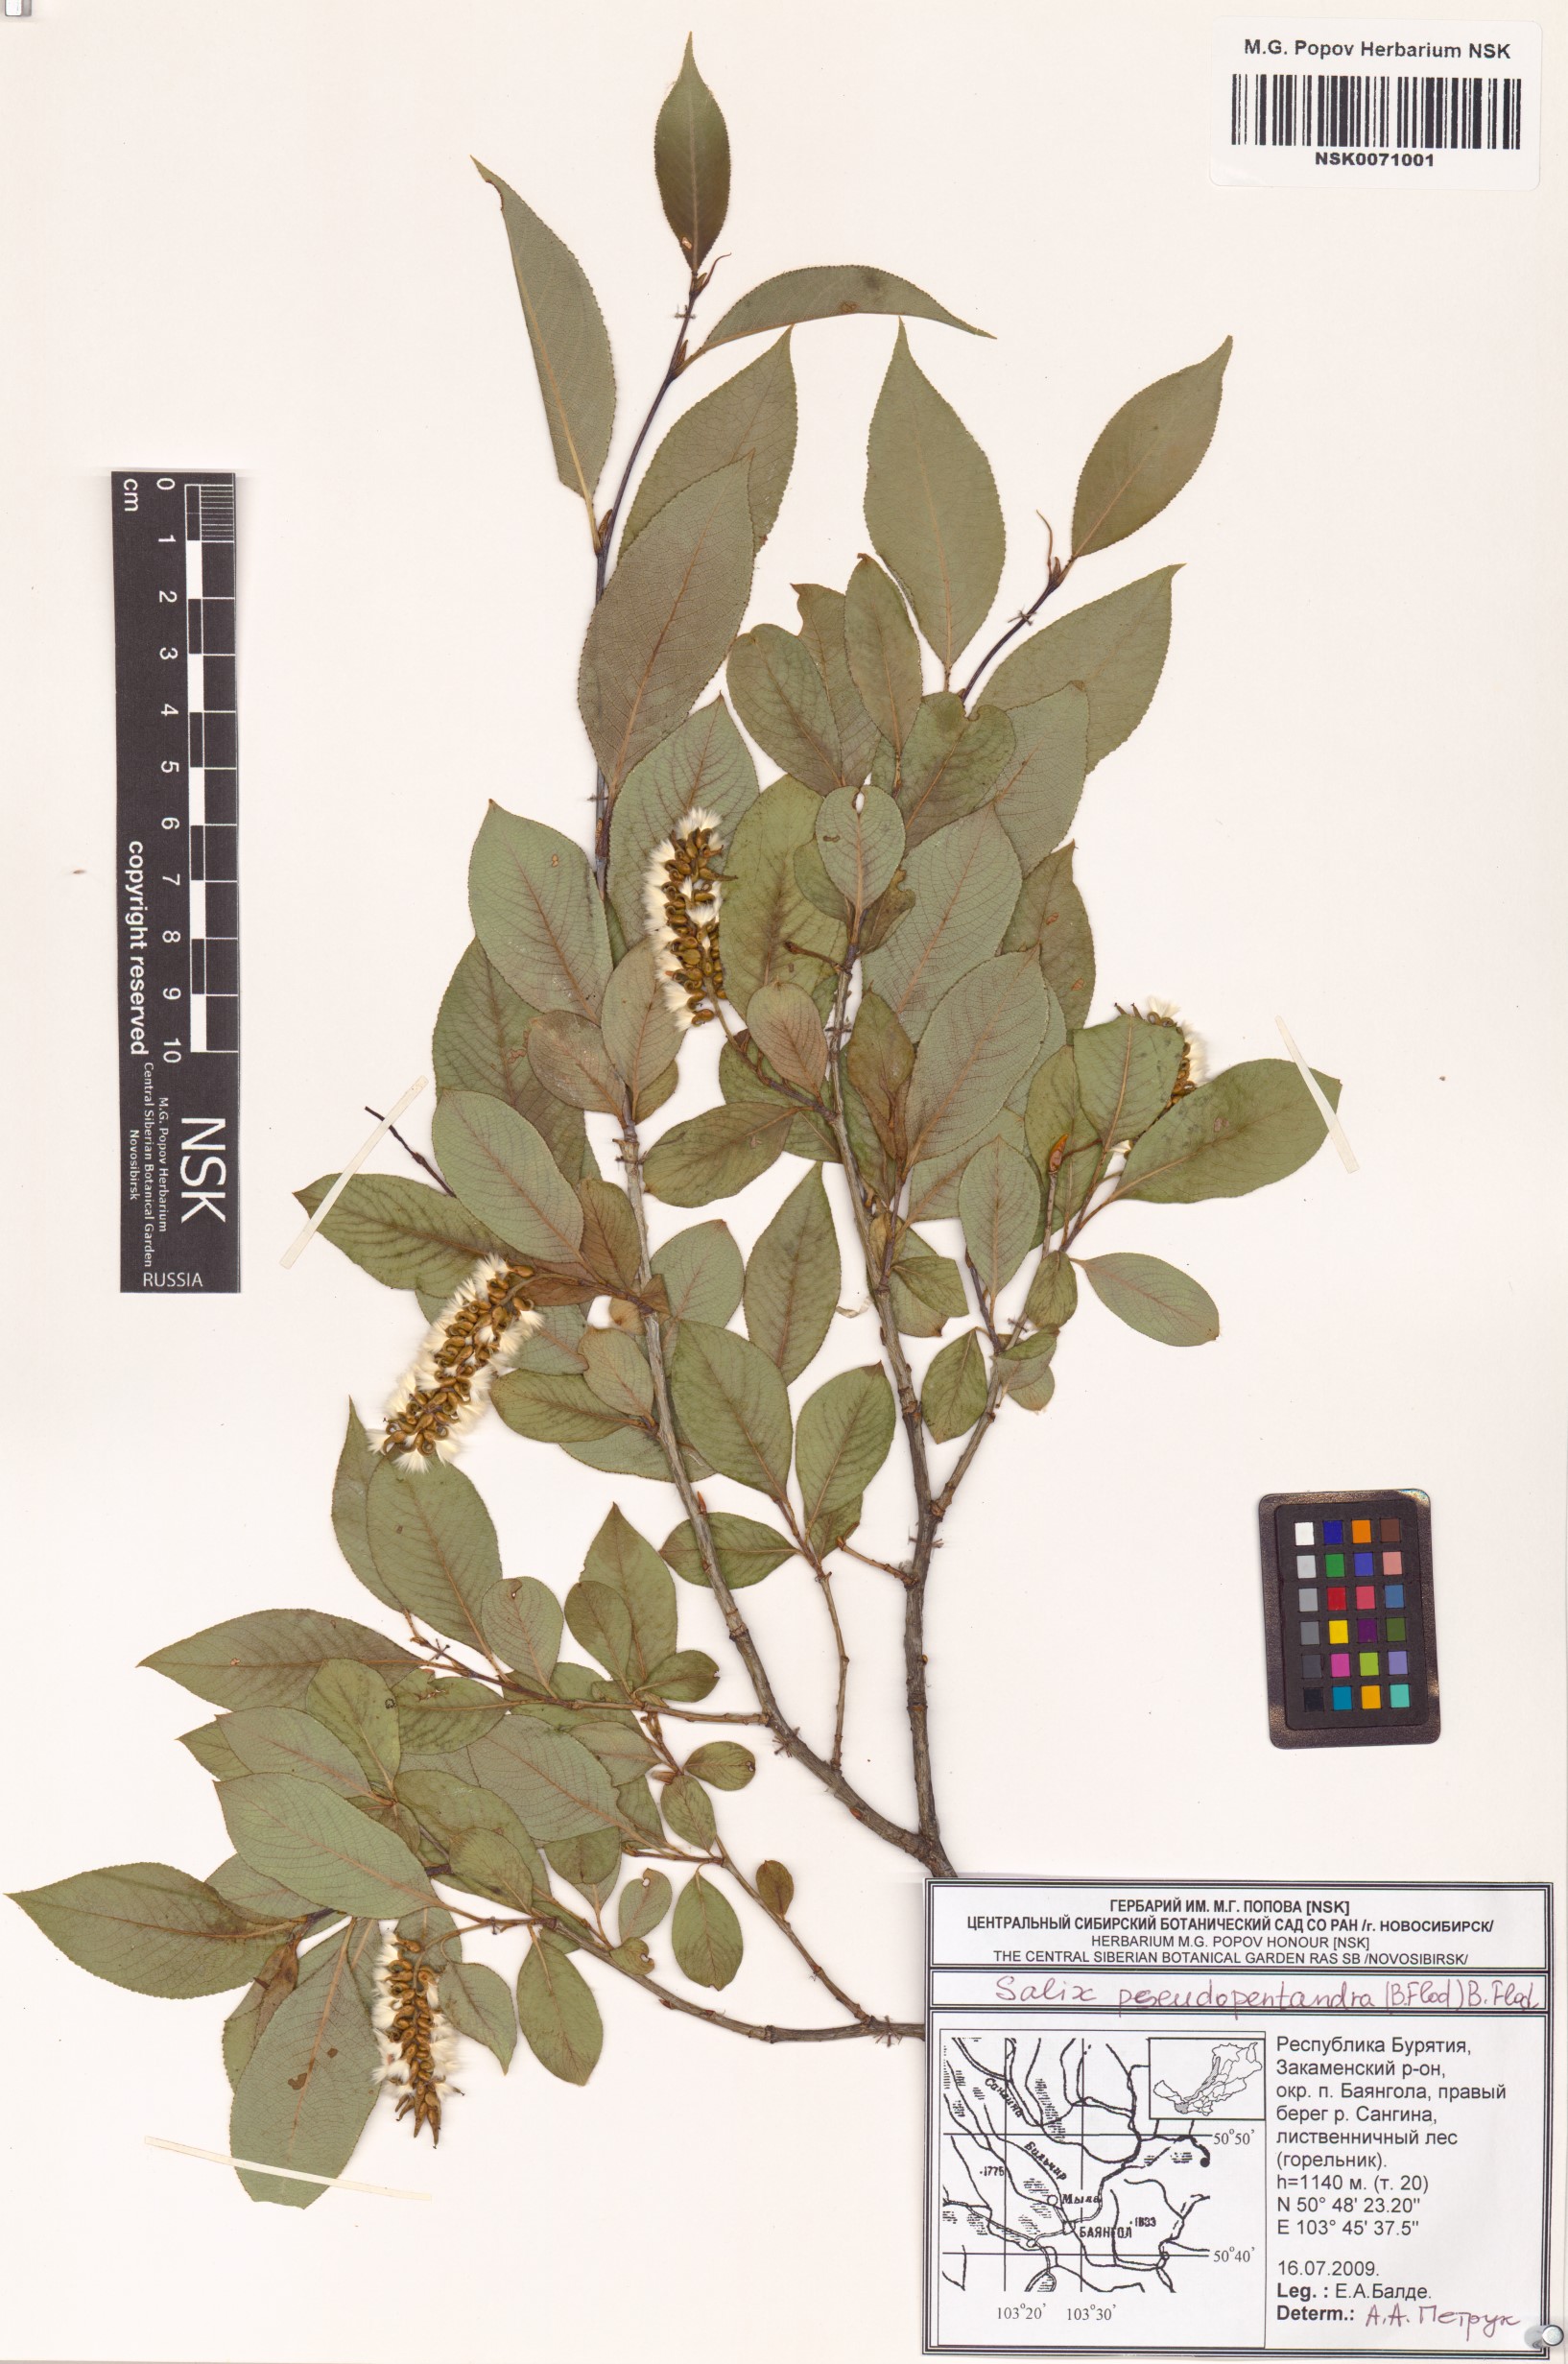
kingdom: Plantae
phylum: Tracheophyta
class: Magnoliopsida
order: Malpighiales
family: Salicaceae
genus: Salix
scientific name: Salix pseudopentandra
